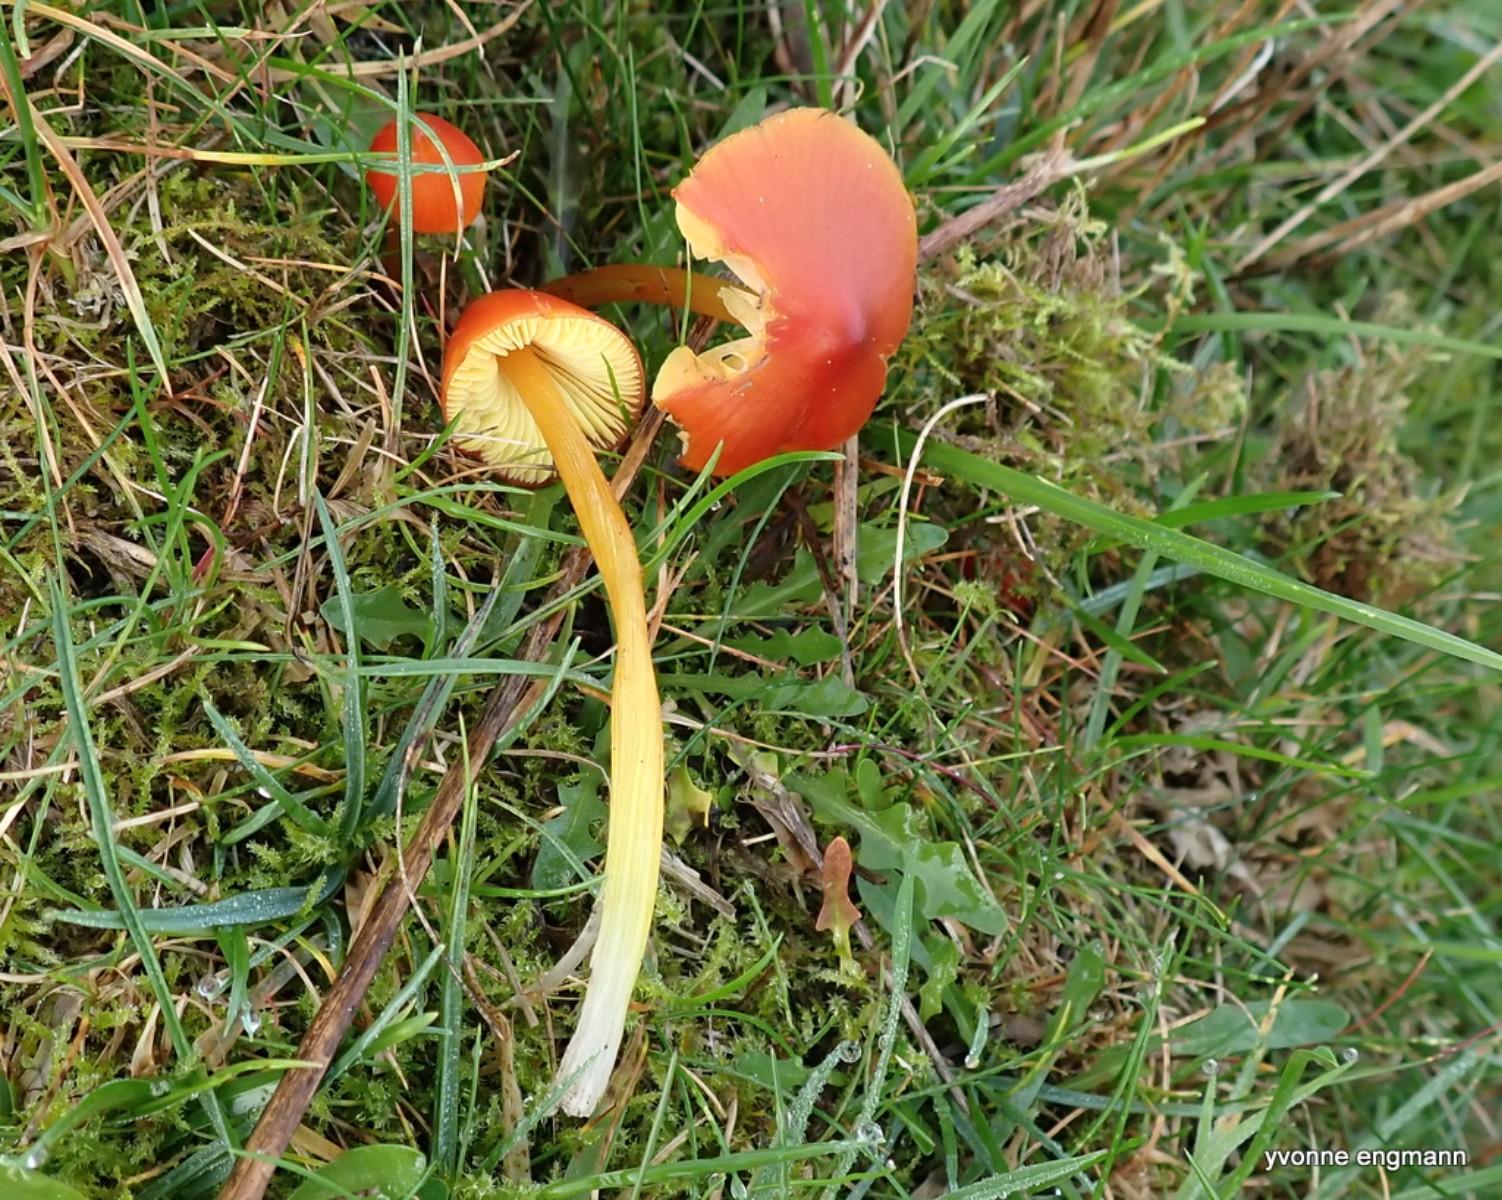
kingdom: Fungi
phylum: Basidiomycota
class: Agaricomycetes
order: Agaricales
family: Hygrophoraceae
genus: Hygrocybe
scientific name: Hygrocybe conica
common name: kegle-vokshat
